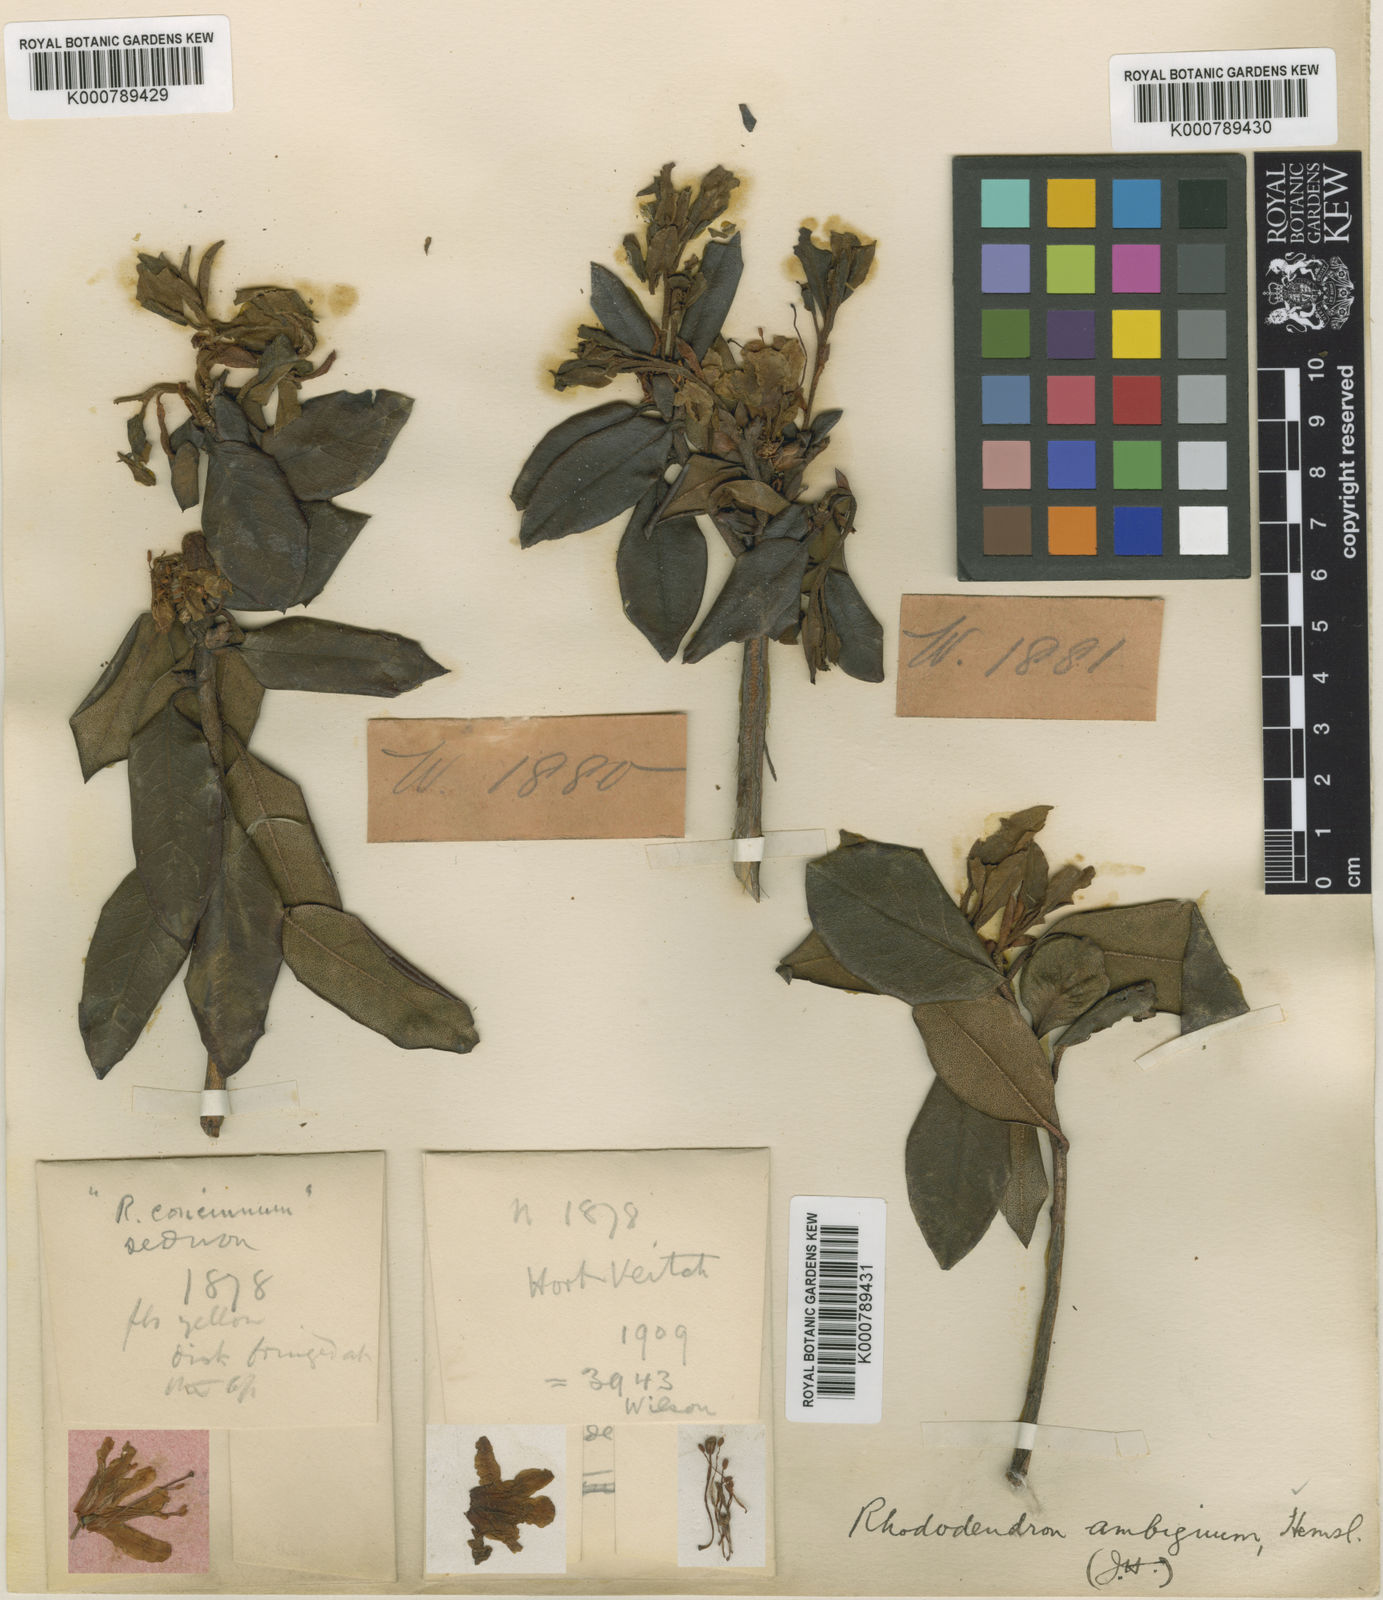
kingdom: Plantae
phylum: Tracheophyta
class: Magnoliopsida
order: Ericales
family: Ericaceae
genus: Rhododendron
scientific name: Rhododendron ambiguum
